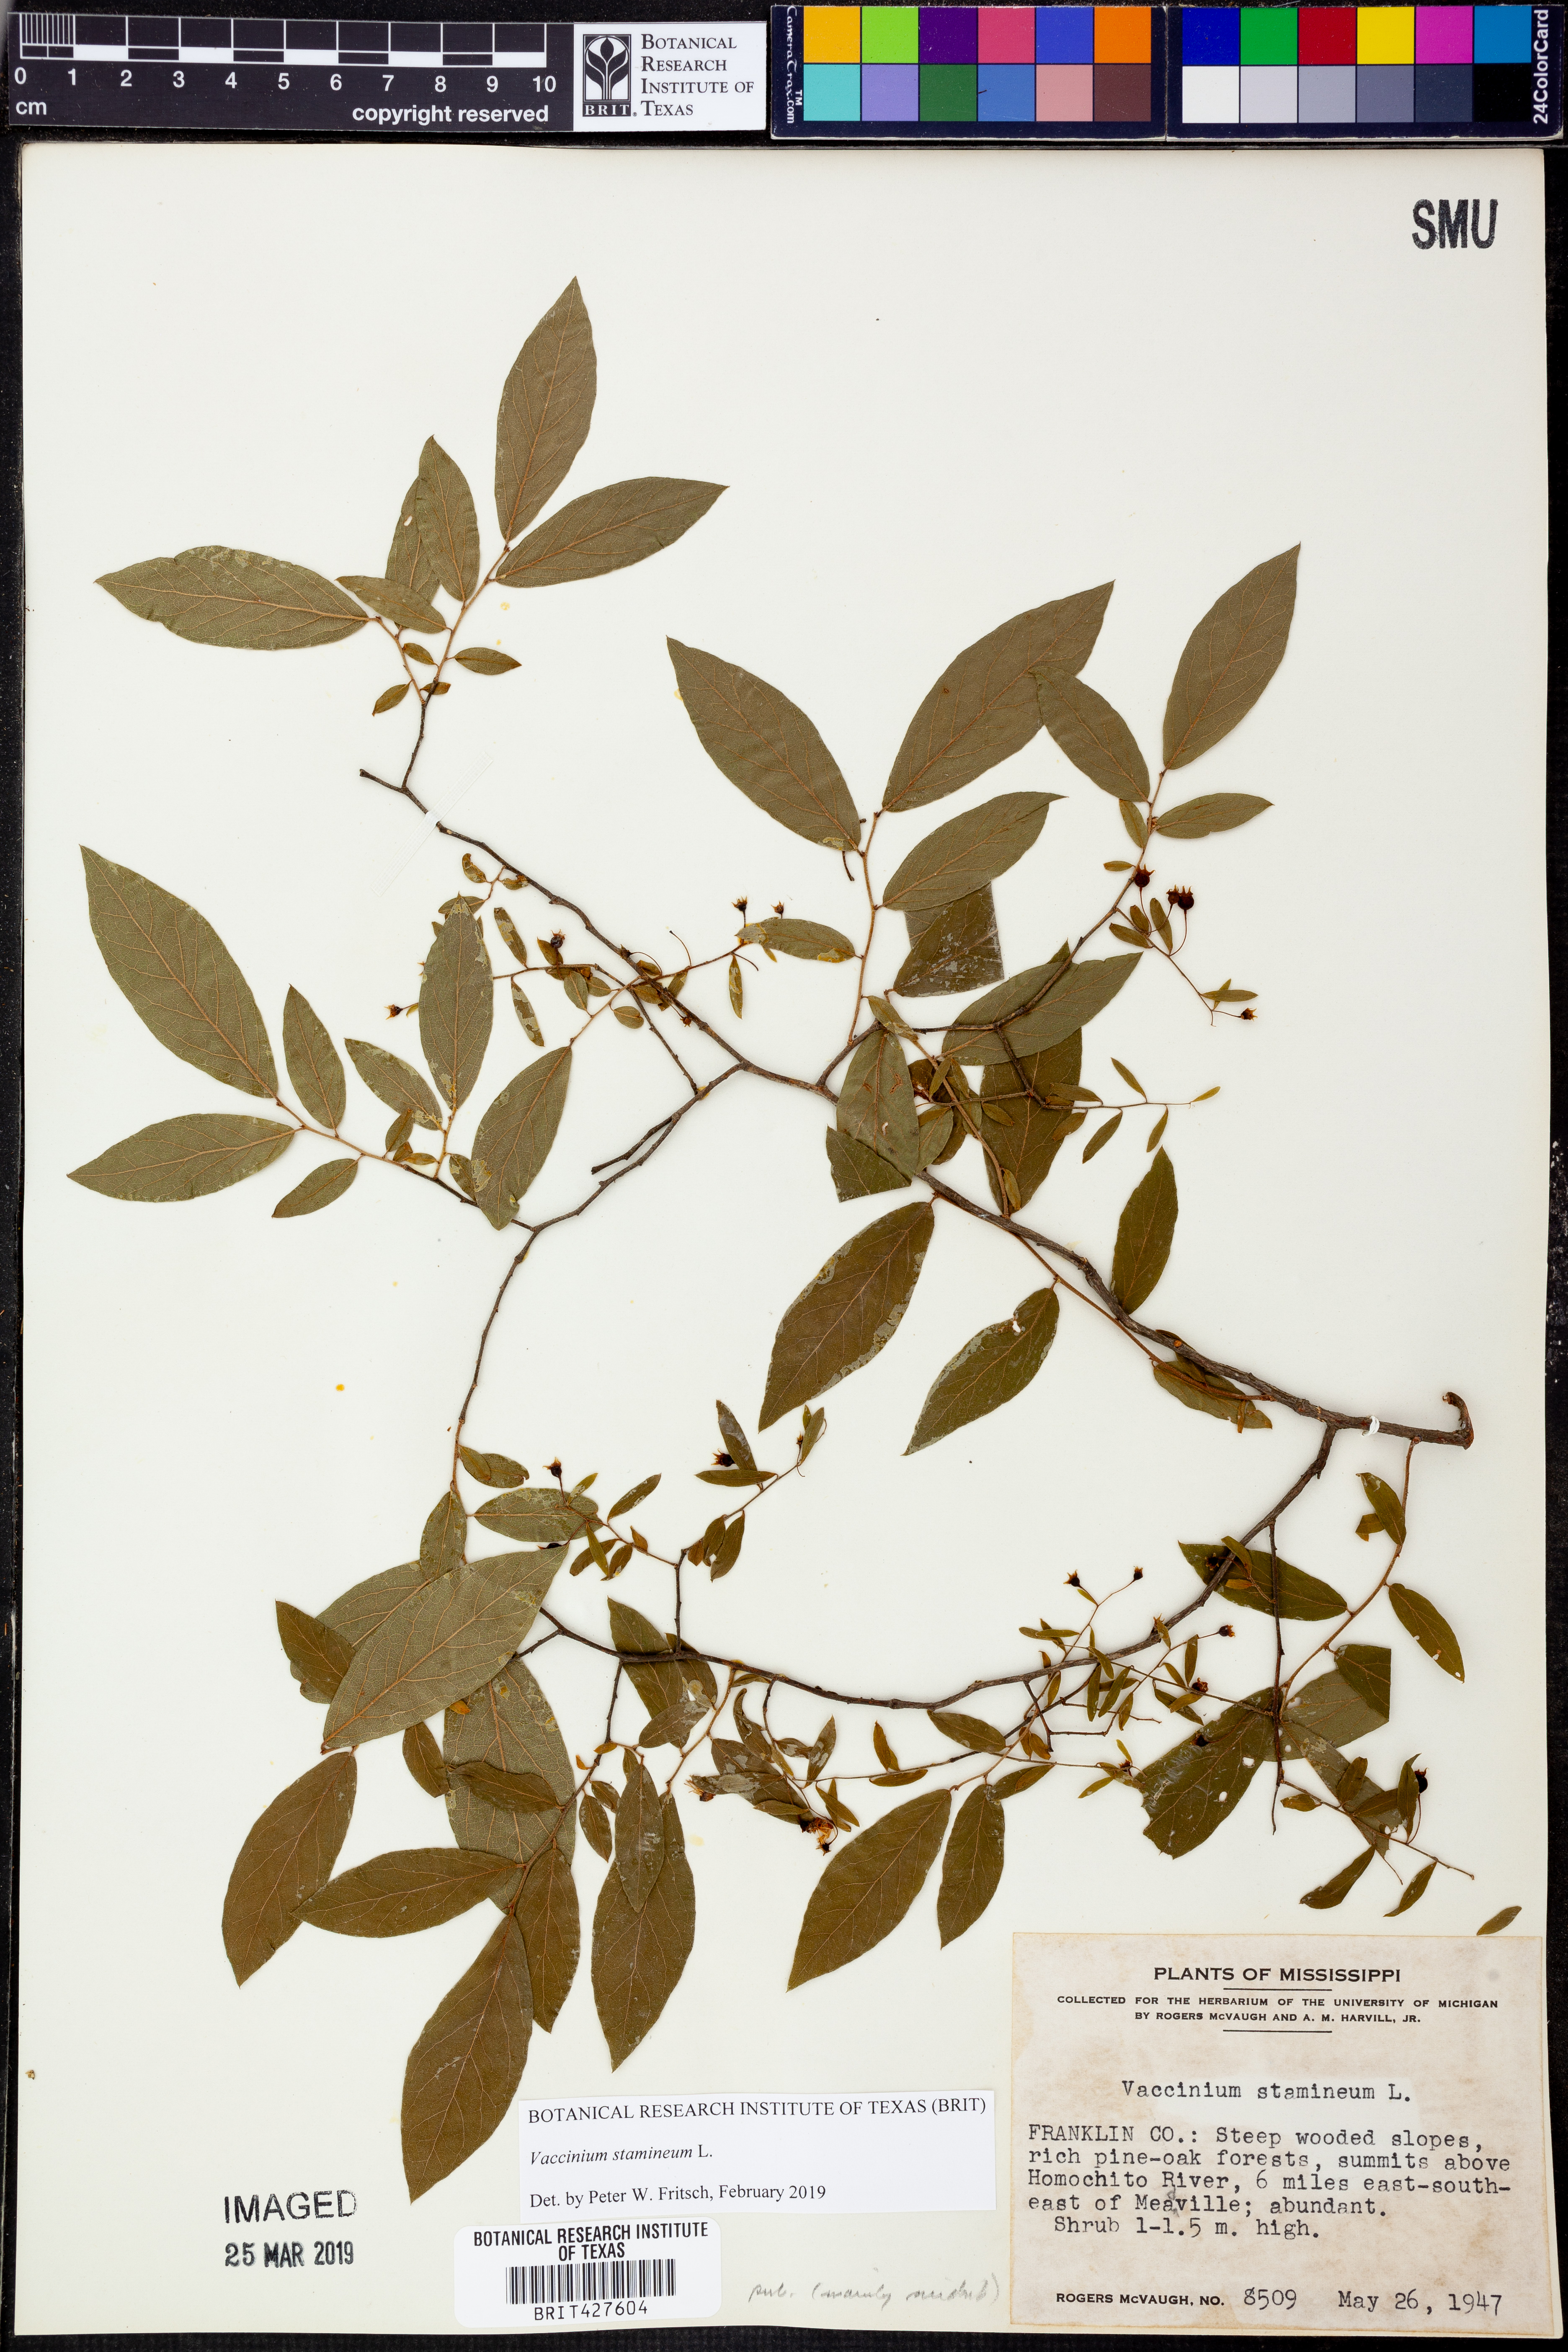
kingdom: Plantae
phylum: Tracheophyta
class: Magnoliopsida
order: Ericales
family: Ericaceae
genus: Vaccinium
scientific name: Vaccinium stamineum
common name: Deerberry
